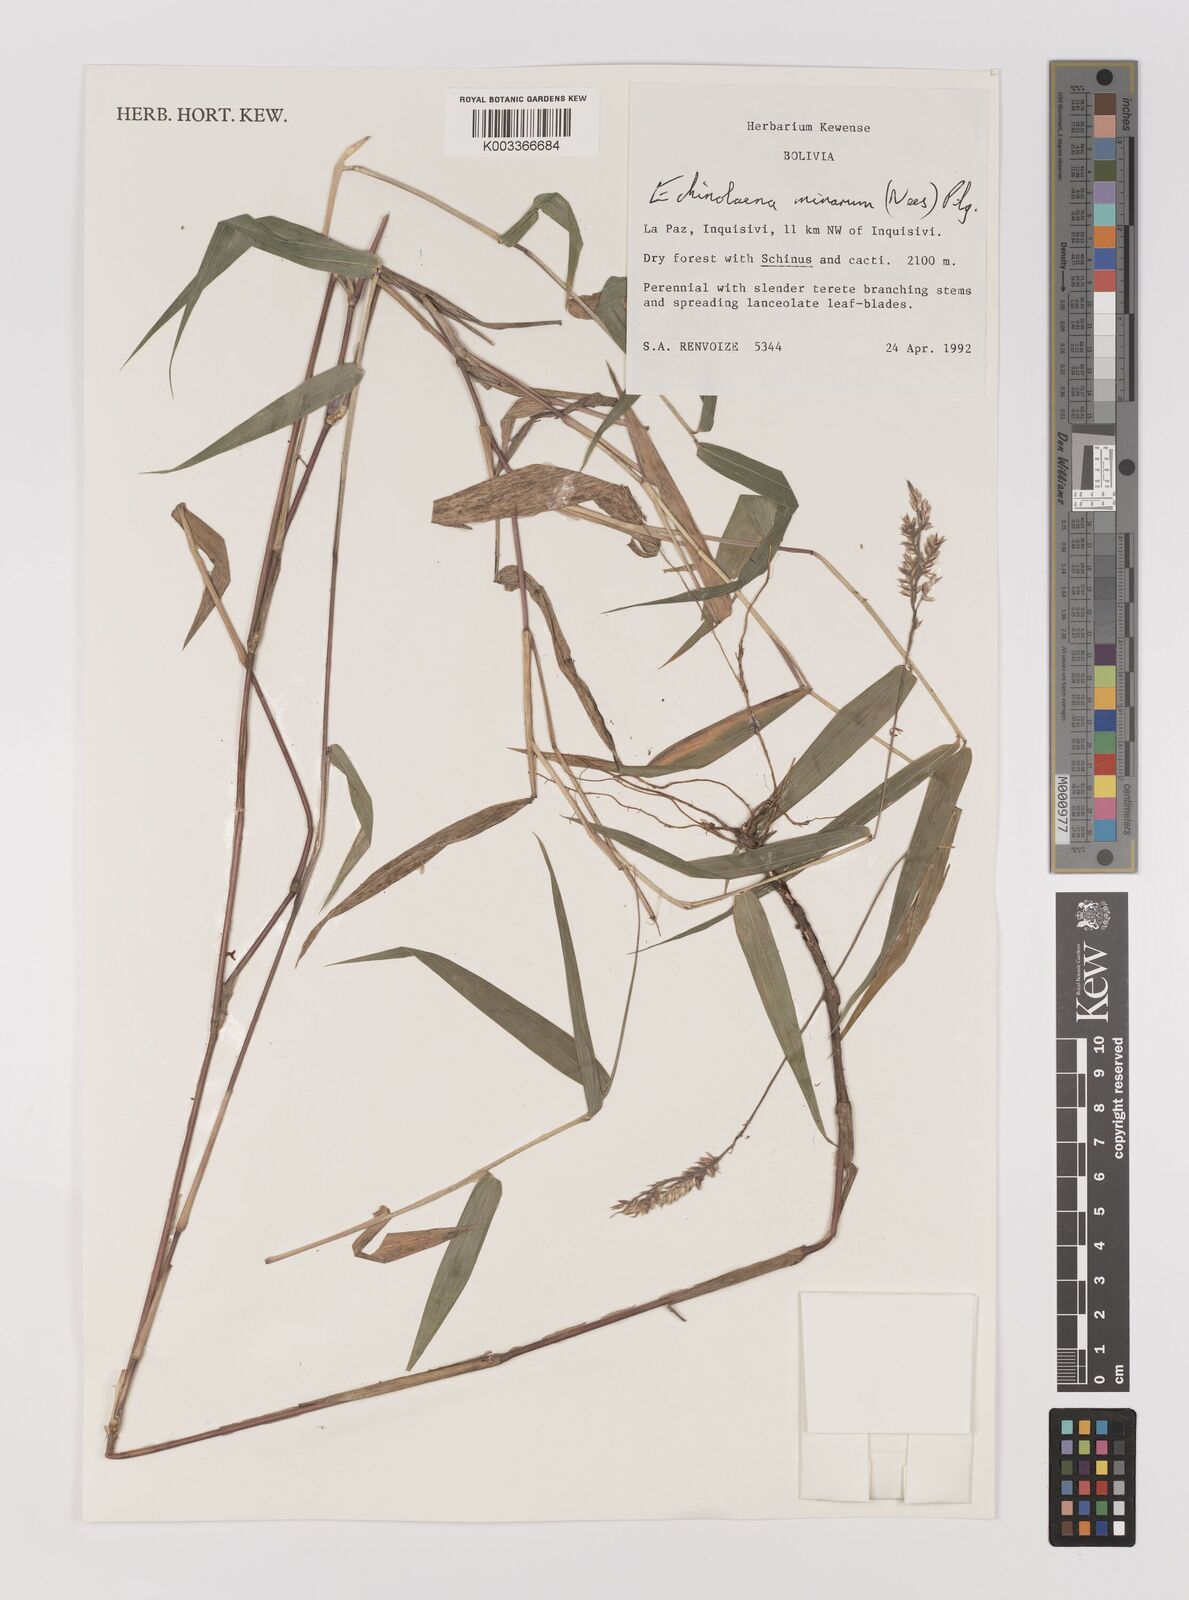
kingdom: Plantae
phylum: Tracheophyta
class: Liliopsida
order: Poales
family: Poaceae
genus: Oedochloa
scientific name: Oedochloa minarum
